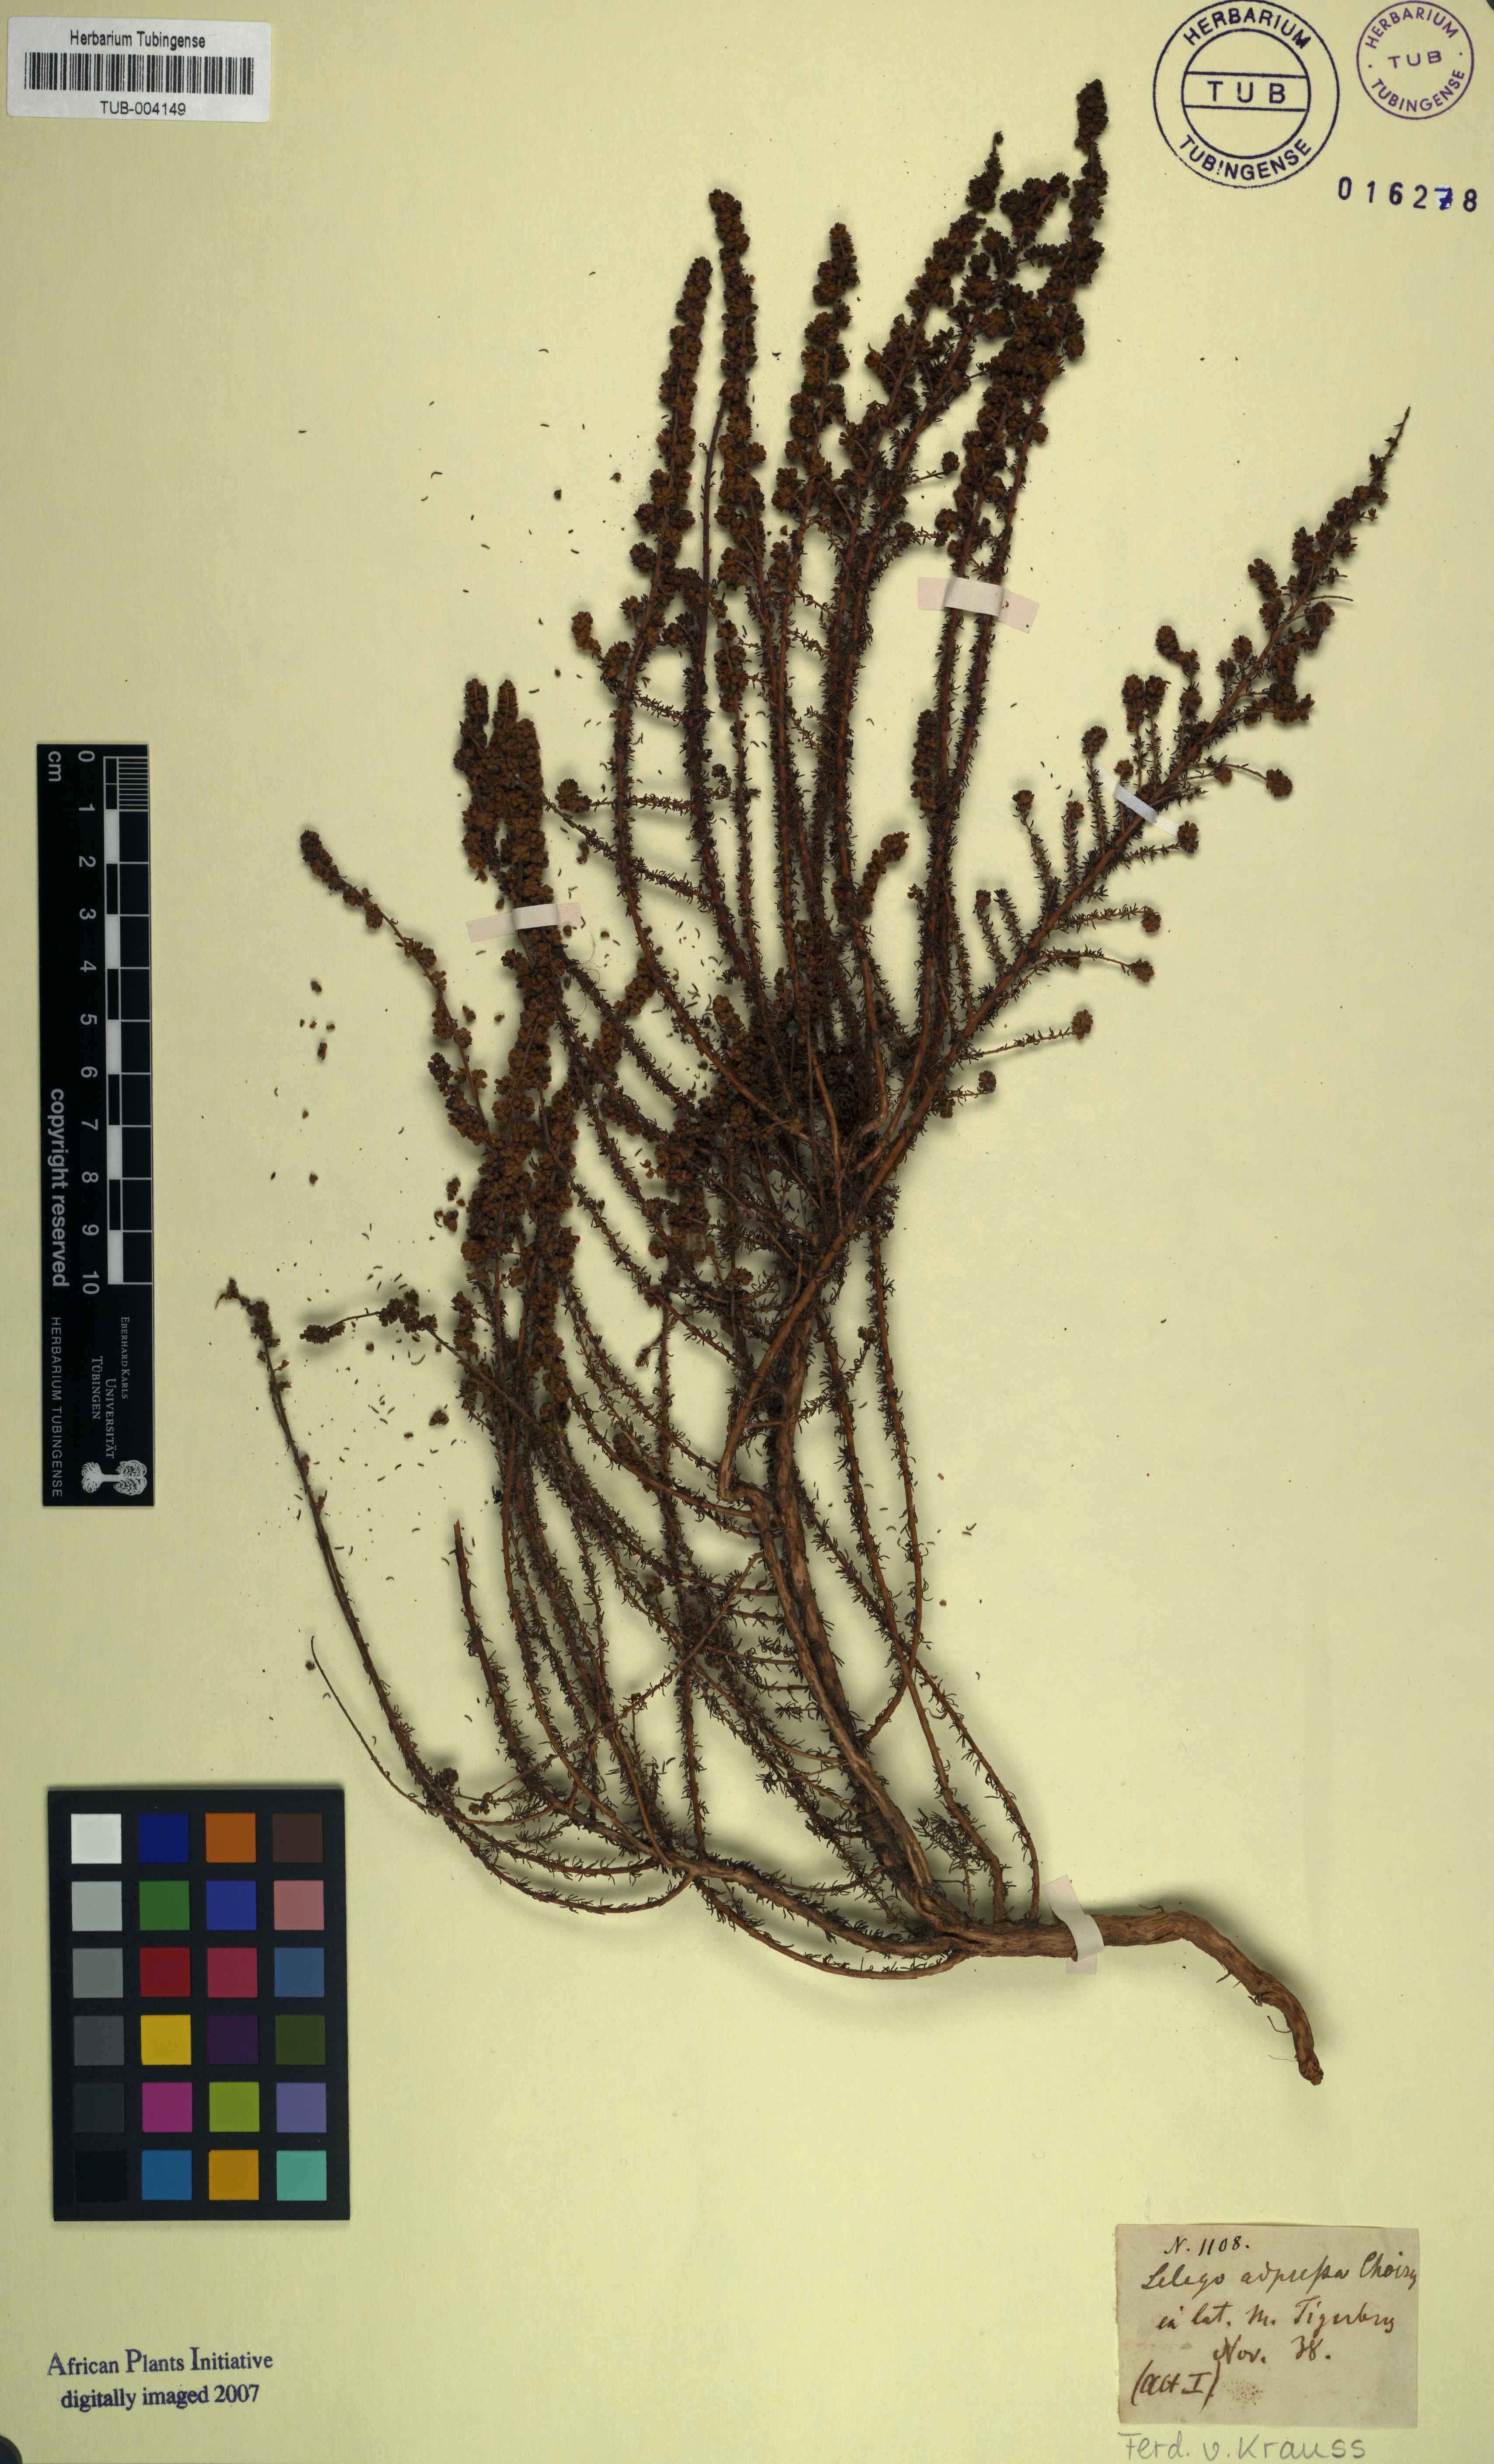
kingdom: Plantae
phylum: Tracheophyta
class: Magnoliopsida
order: Lamiales
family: Scrophulariaceae
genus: Globulariopsis
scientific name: Globulariopsis adpressa
